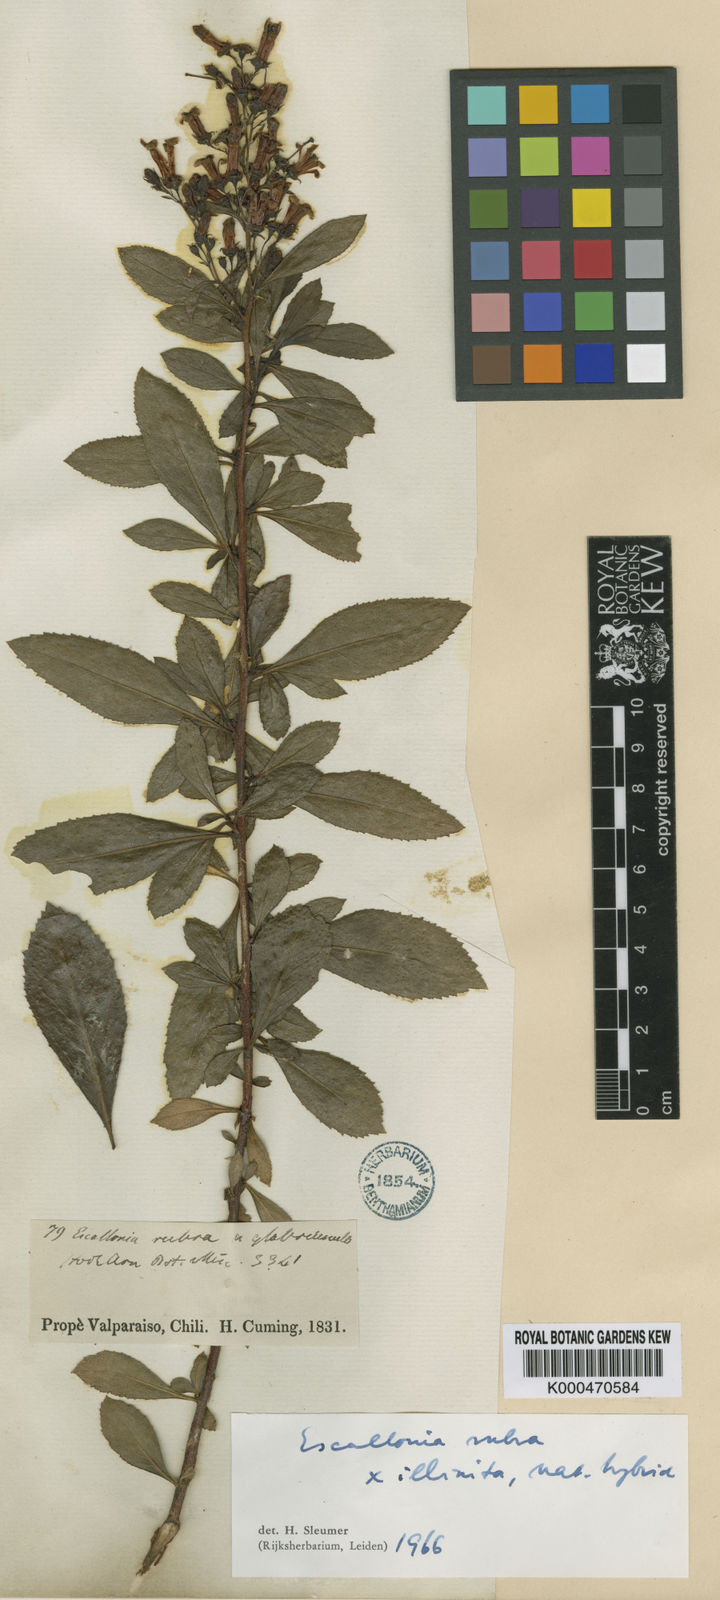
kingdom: Plantae
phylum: Tracheophyta
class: Magnoliopsida
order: Escalloniales
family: Escalloniaceae
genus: Escallonia
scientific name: Escallonia
